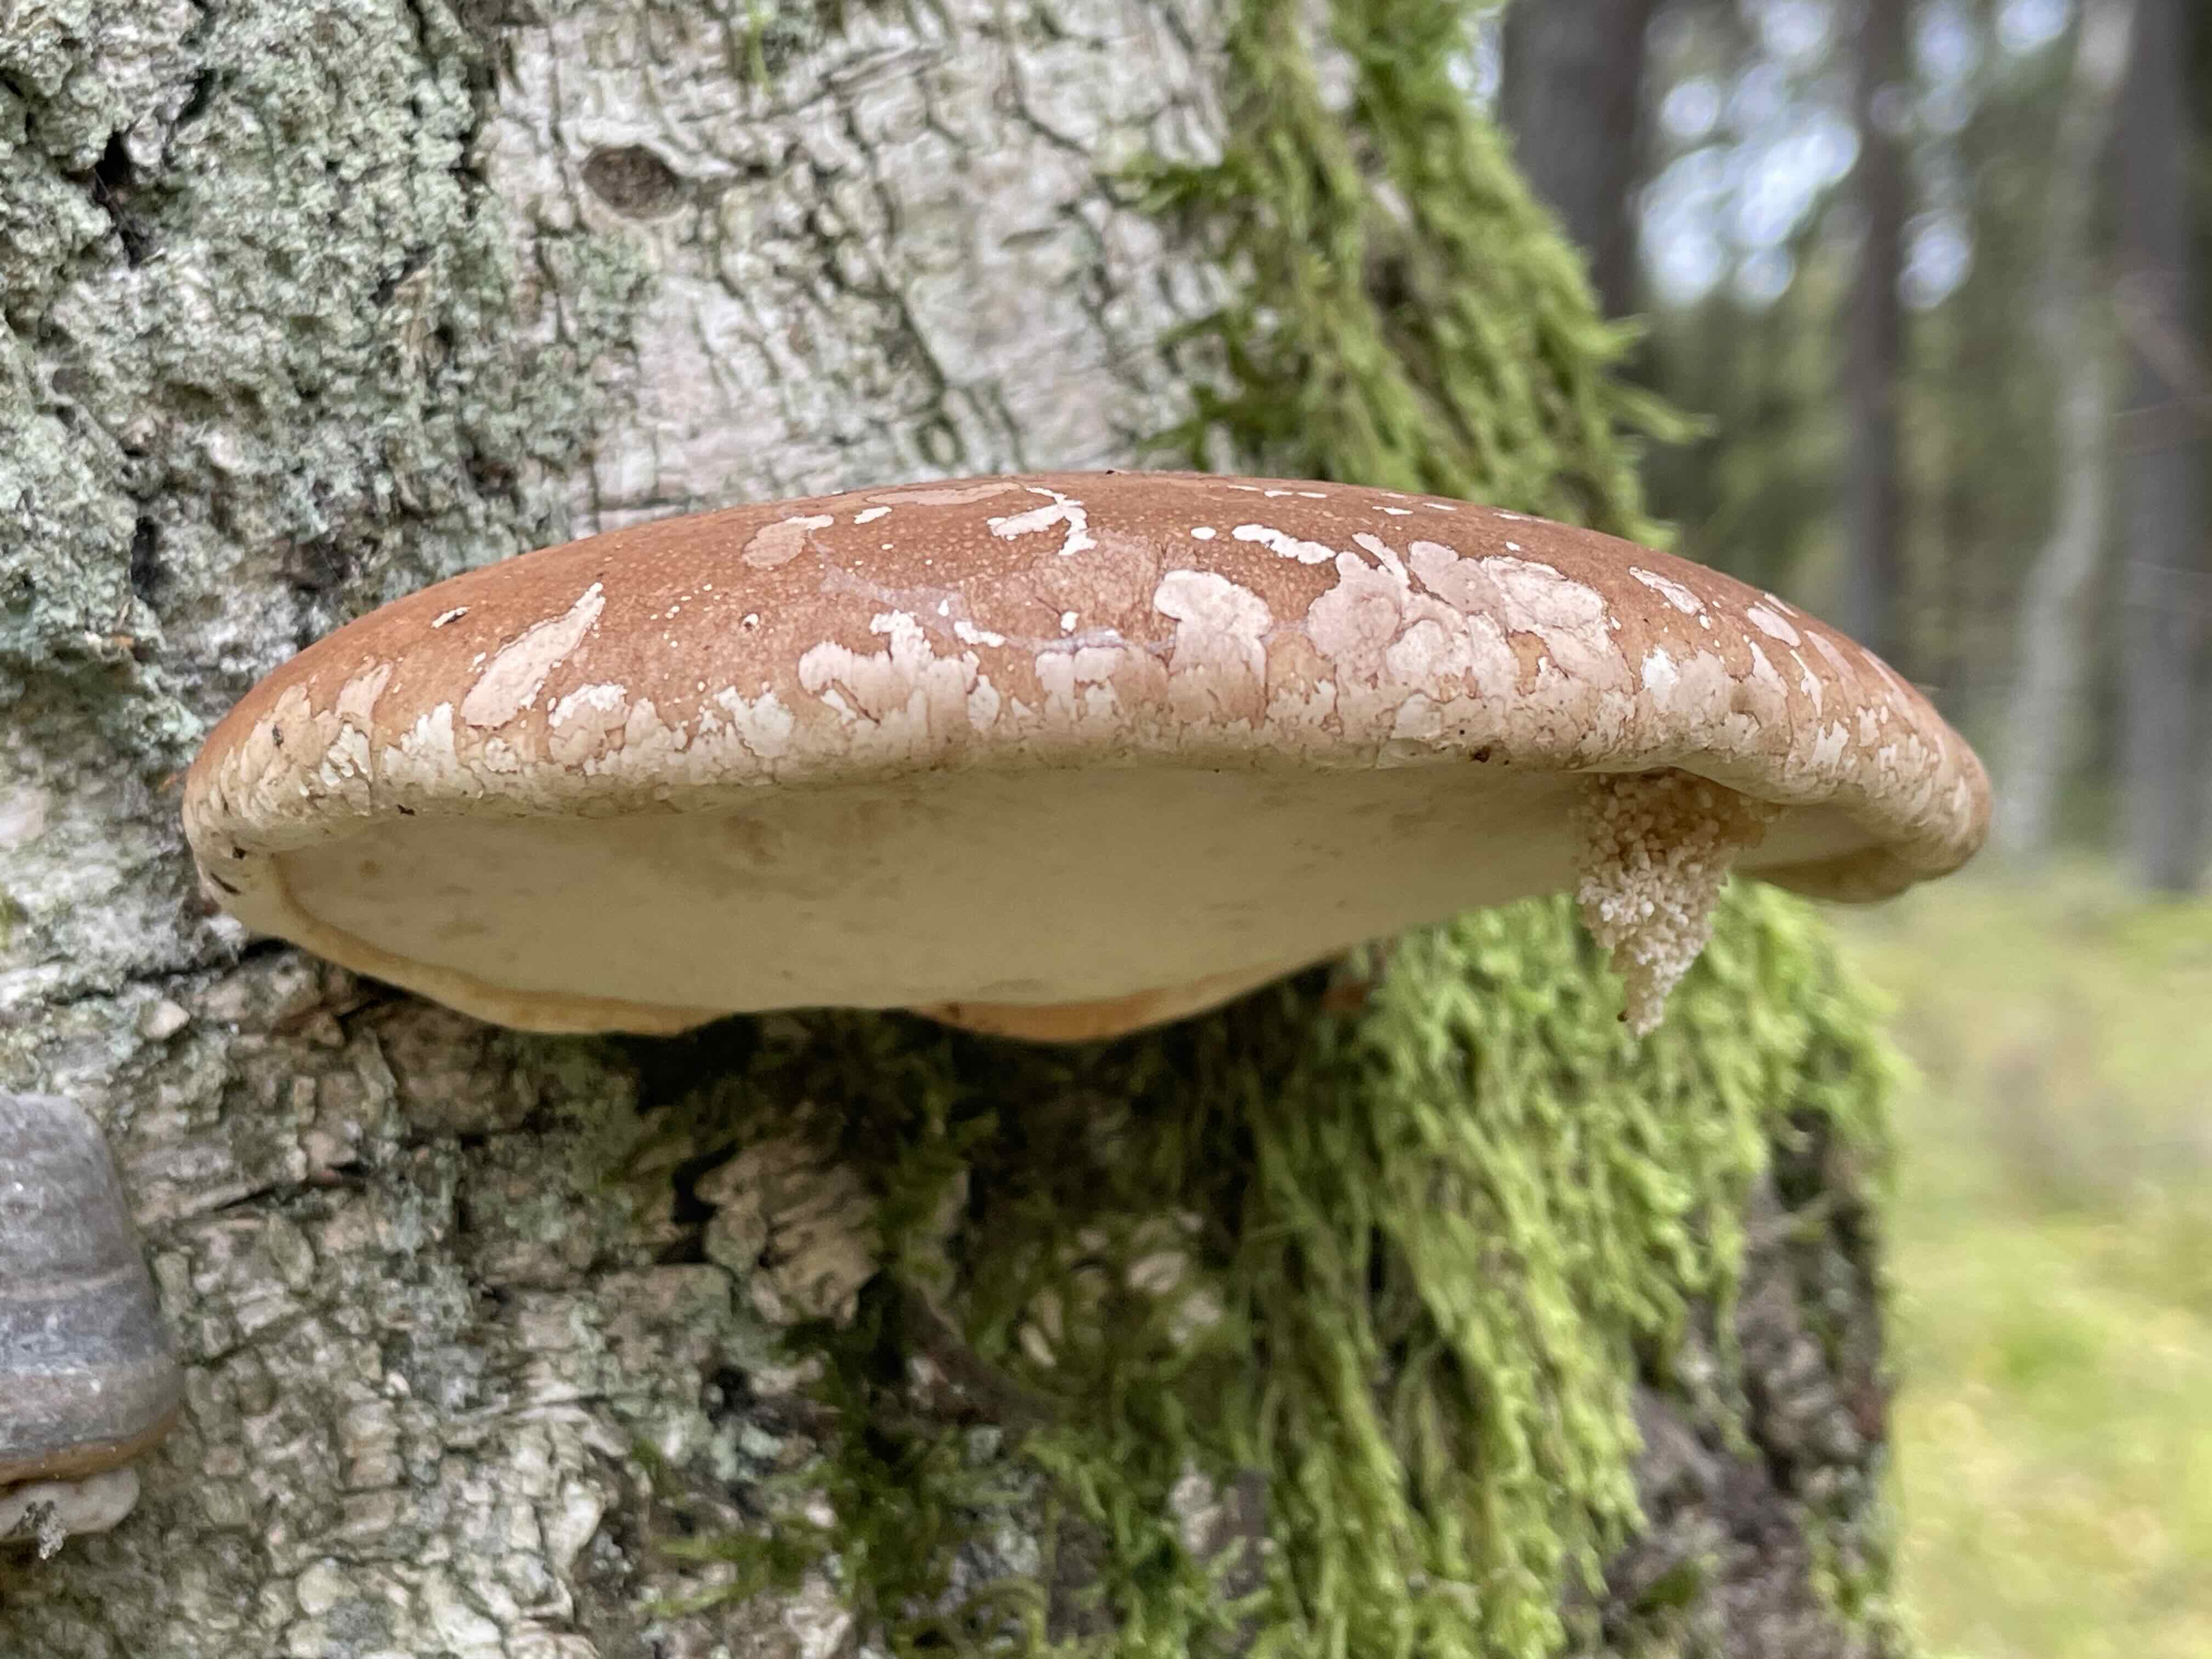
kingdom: Fungi
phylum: Basidiomycota
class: Agaricomycetes
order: Polyporales
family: Fomitopsidaceae
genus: Fomitopsis
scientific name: Fomitopsis betulina
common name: birkeporesvamp
